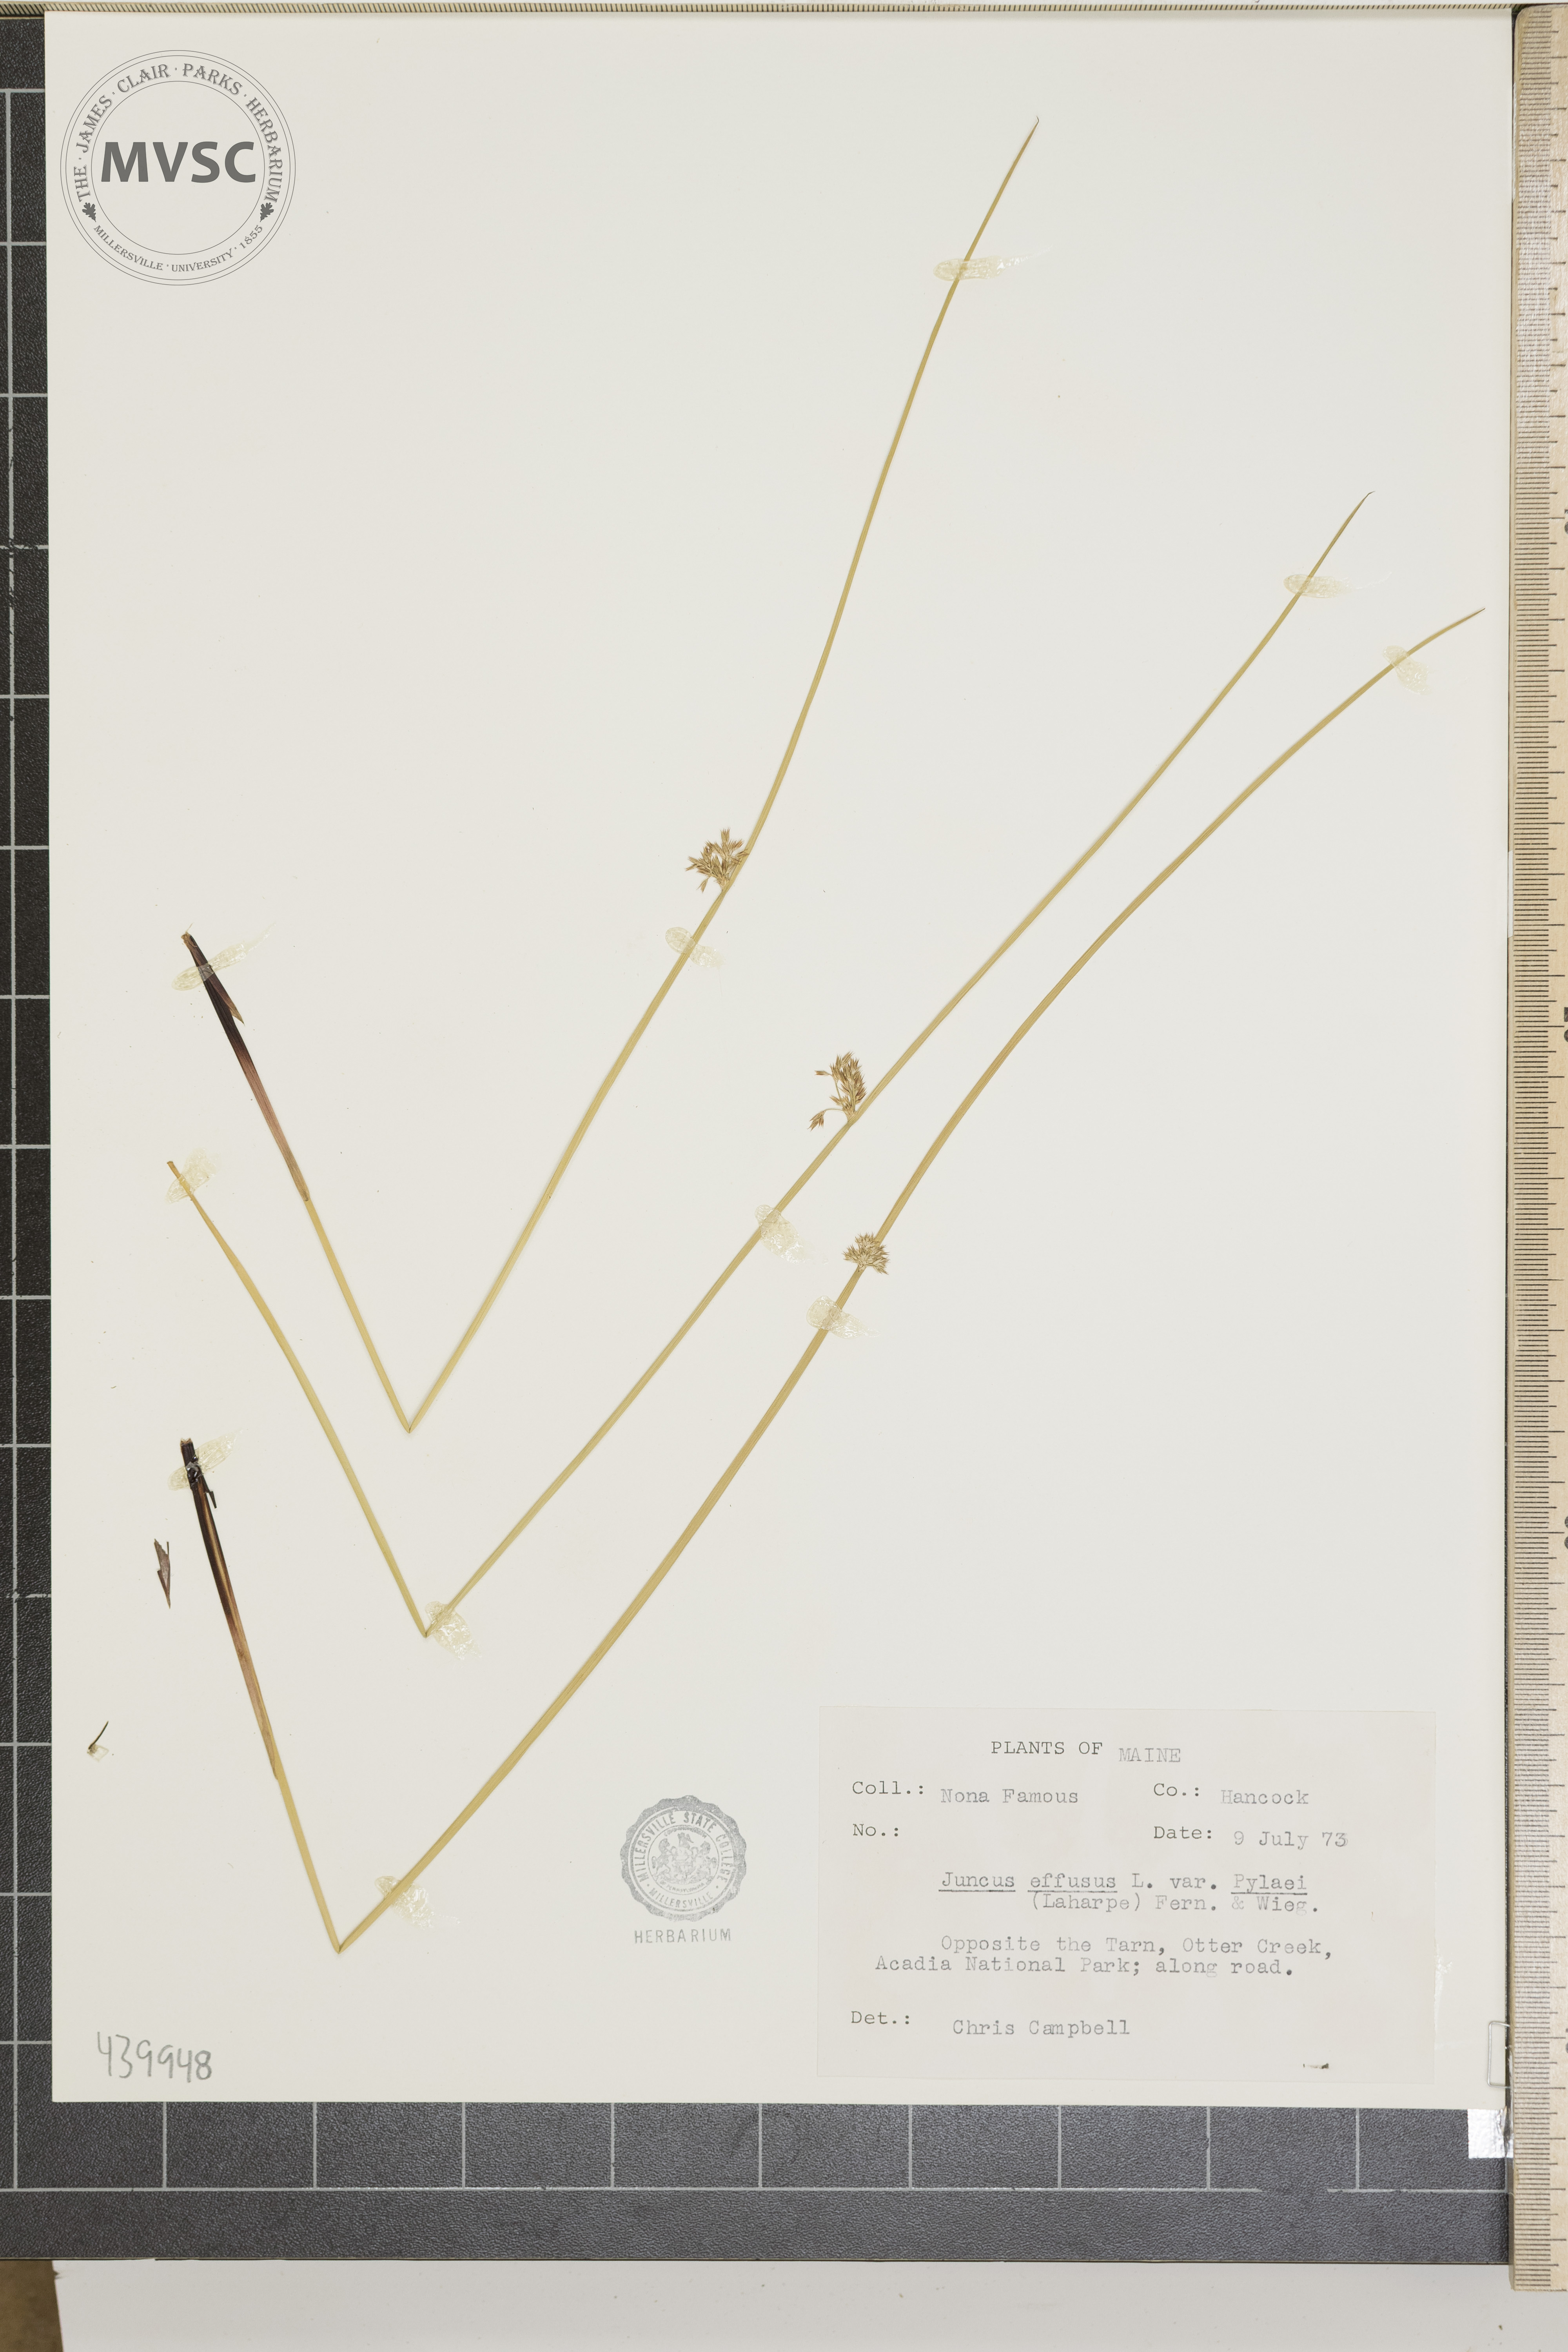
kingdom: Plantae
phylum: Tracheophyta
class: Liliopsida
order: Poales
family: Juncaceae
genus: Juncus
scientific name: Juncus effusus
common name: Soft rush
